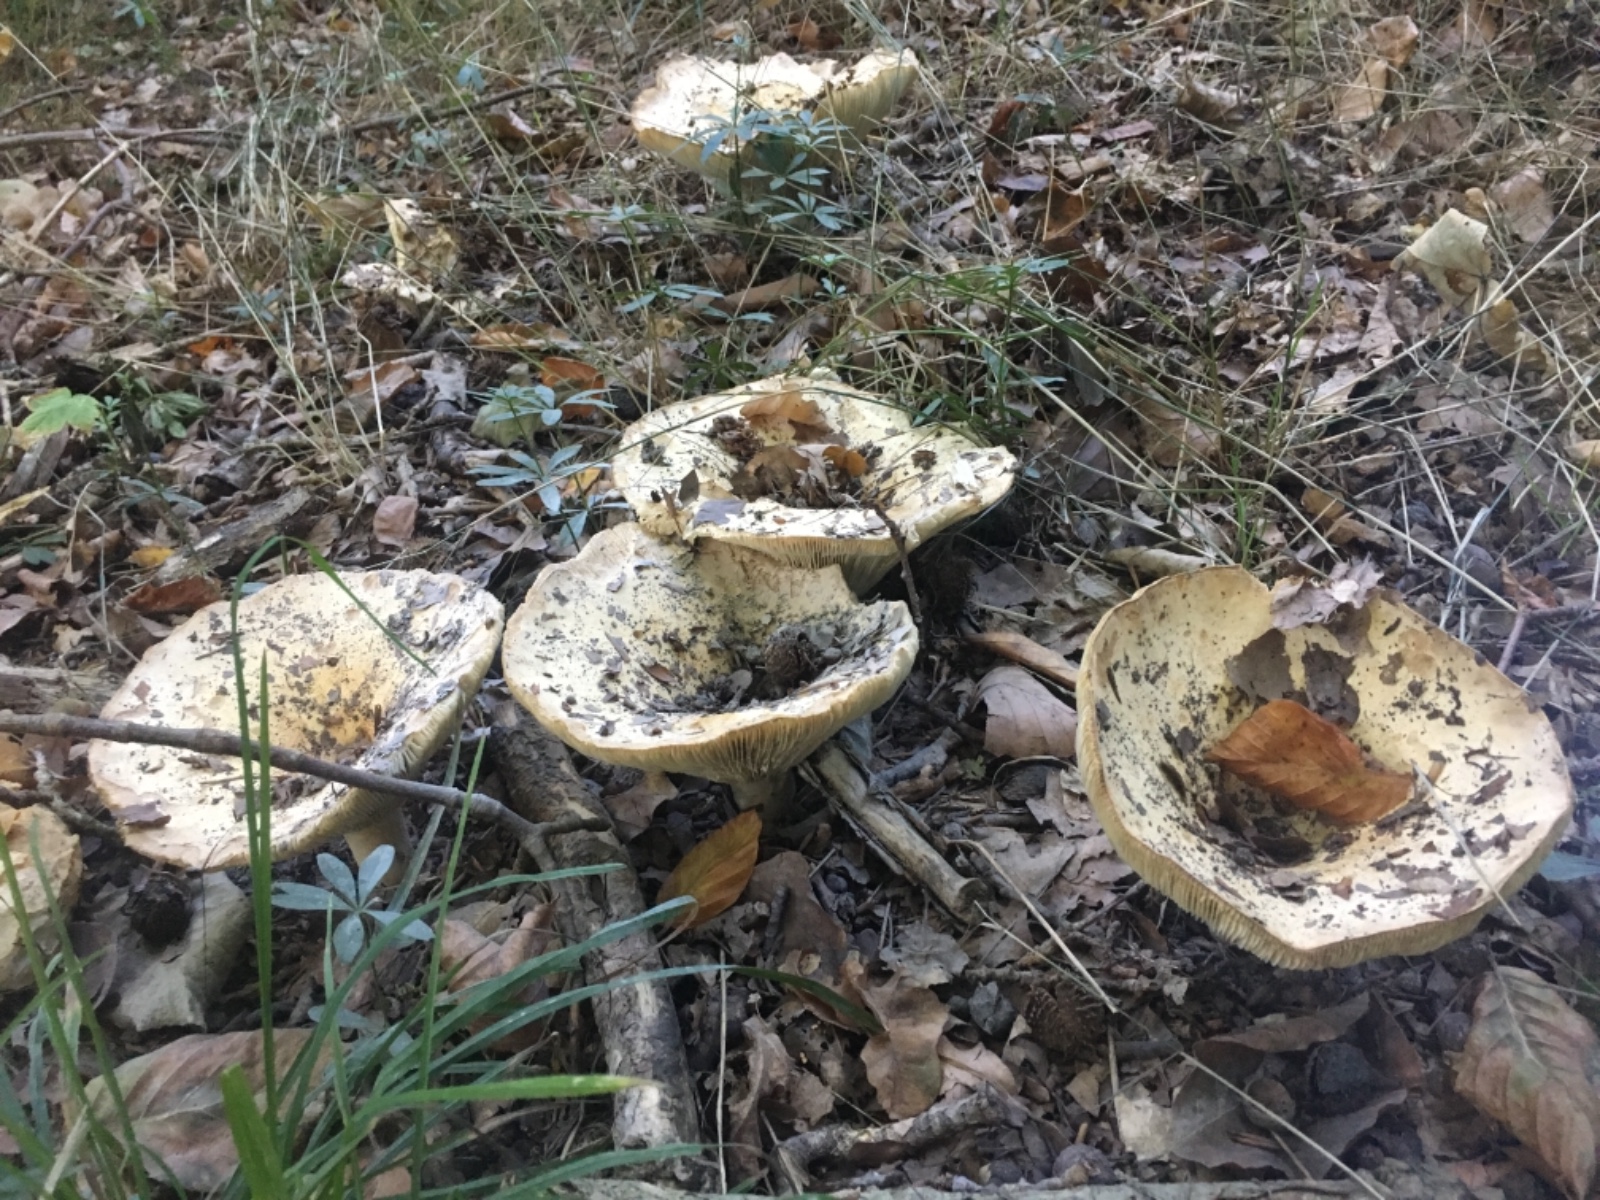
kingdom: Fungi
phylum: Basidiomycota
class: Agaricomycetes
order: Russulales
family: Russulaceae
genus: Russula
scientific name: Russula chloroides
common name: grønhalset tragt-skørhat
